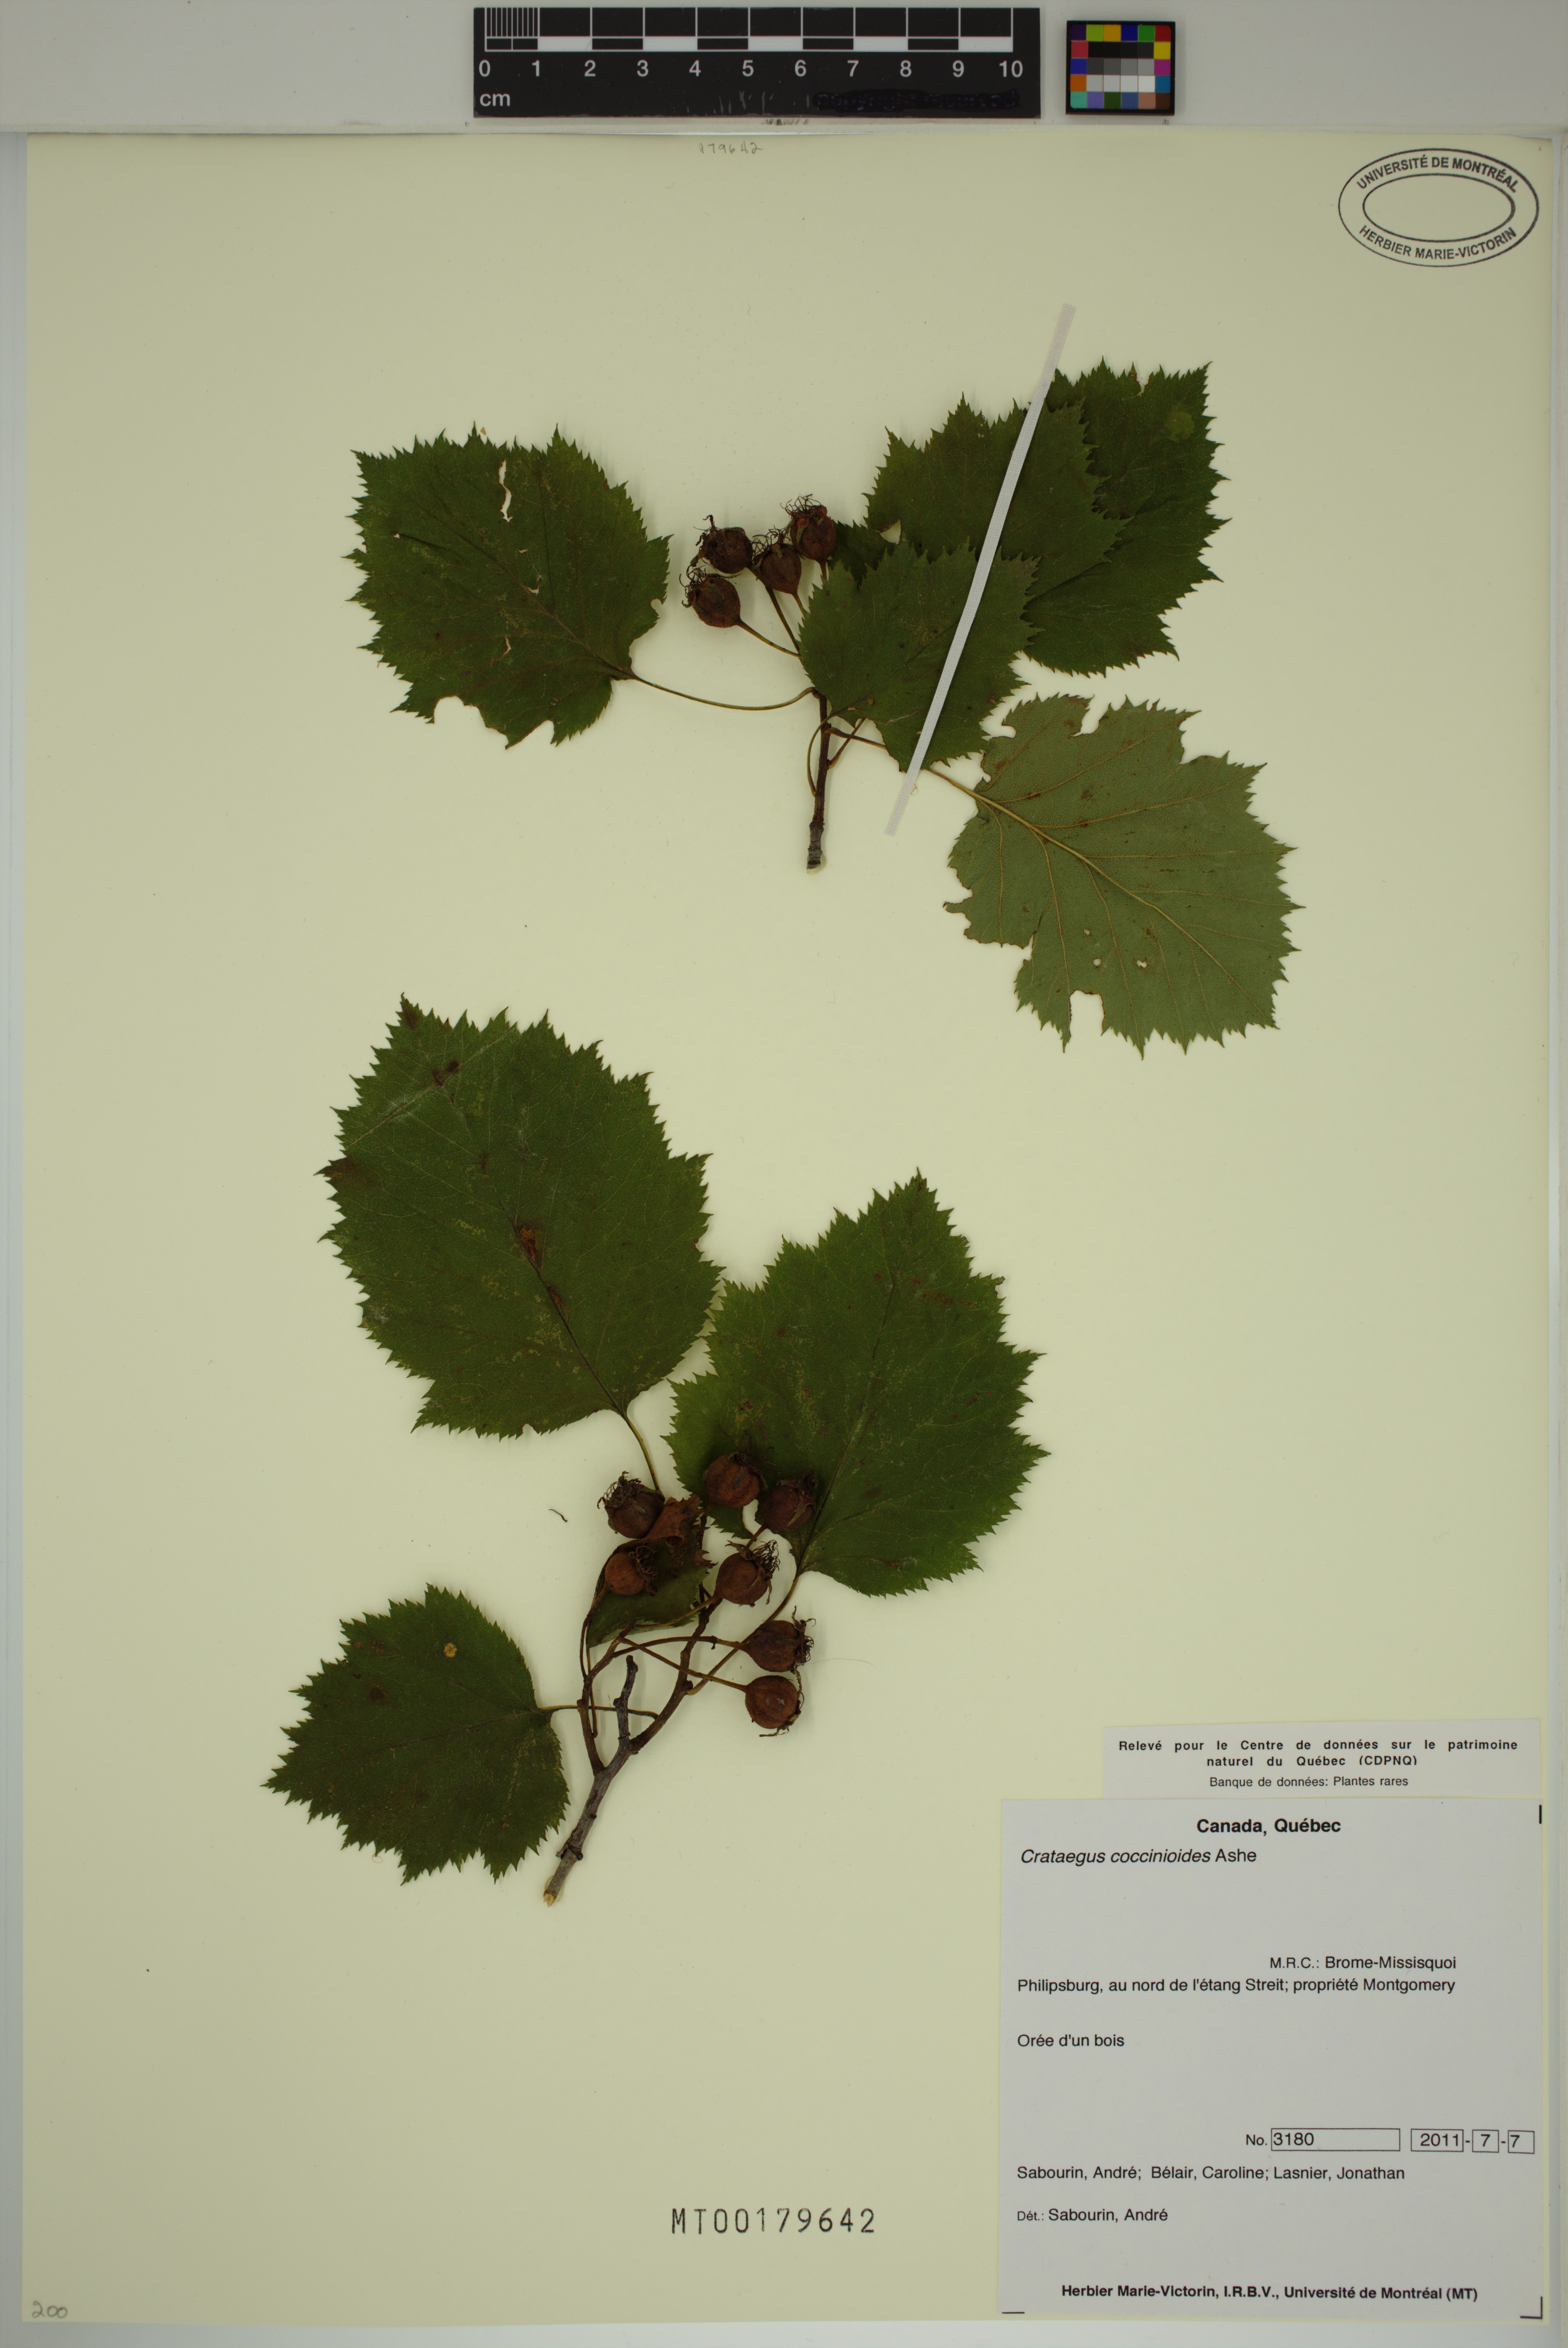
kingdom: Plantae
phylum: Tracheophyta
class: Magnoliopsida
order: Rosales
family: Rosaceae
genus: Crataegus
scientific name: Crataegus coccinioides
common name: Large-flowered cockspurthorn
